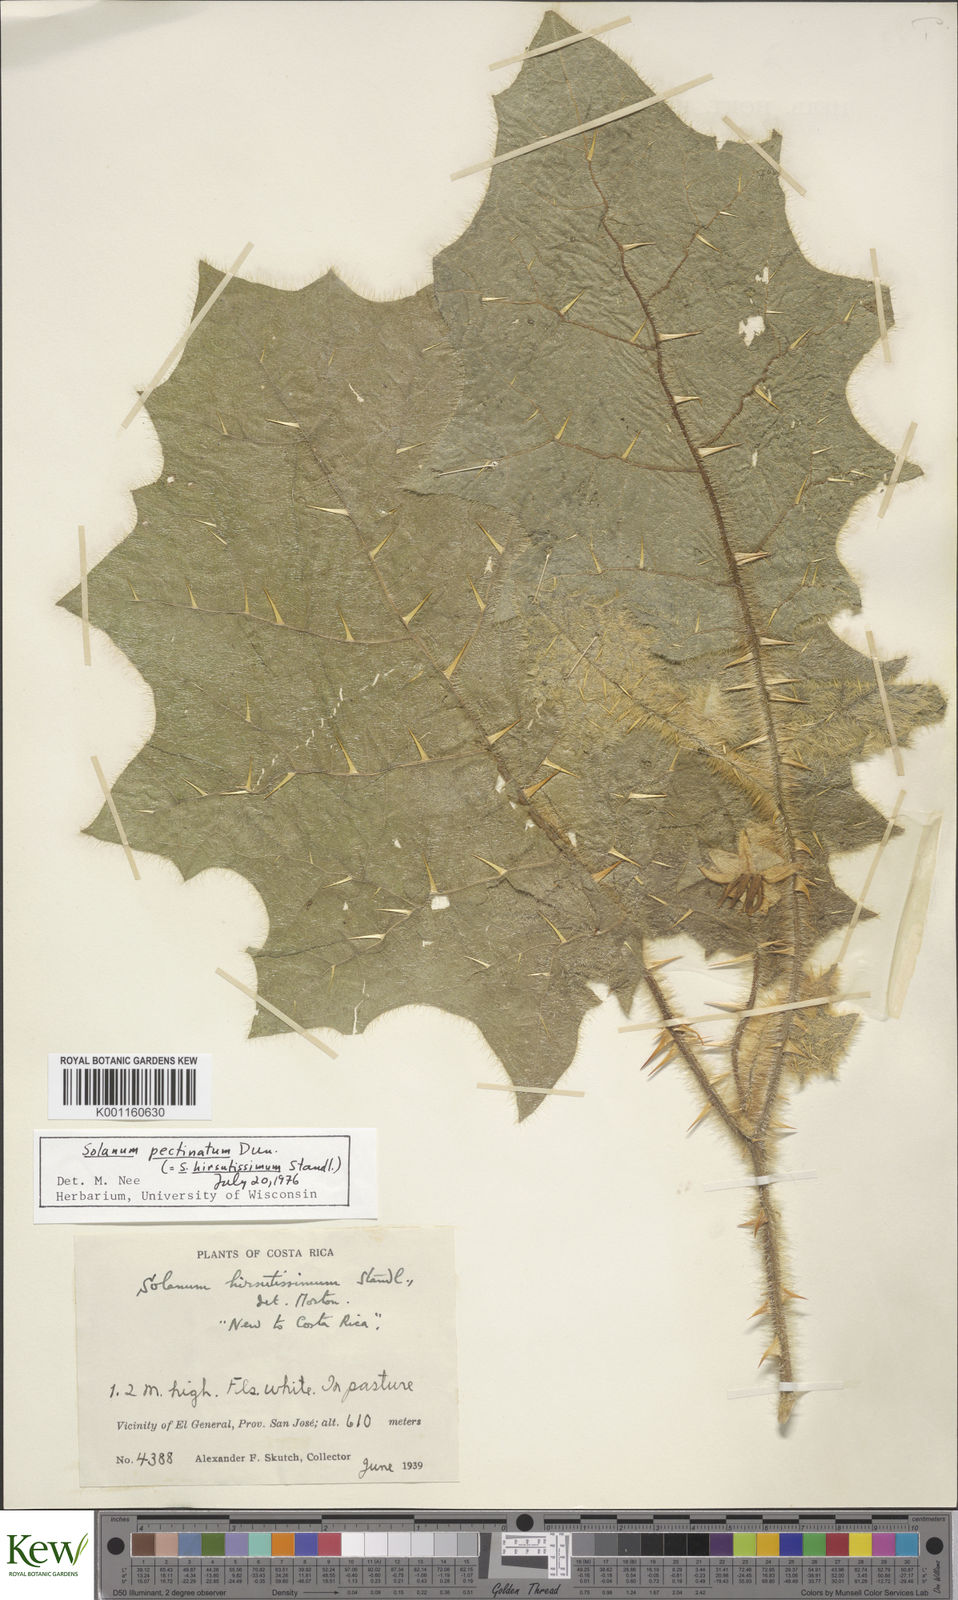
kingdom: Plantae
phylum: Tracheophyta
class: Magnoliopsida
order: Solanales
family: Solanaceae
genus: Solanum
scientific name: Solanum pectinatum
